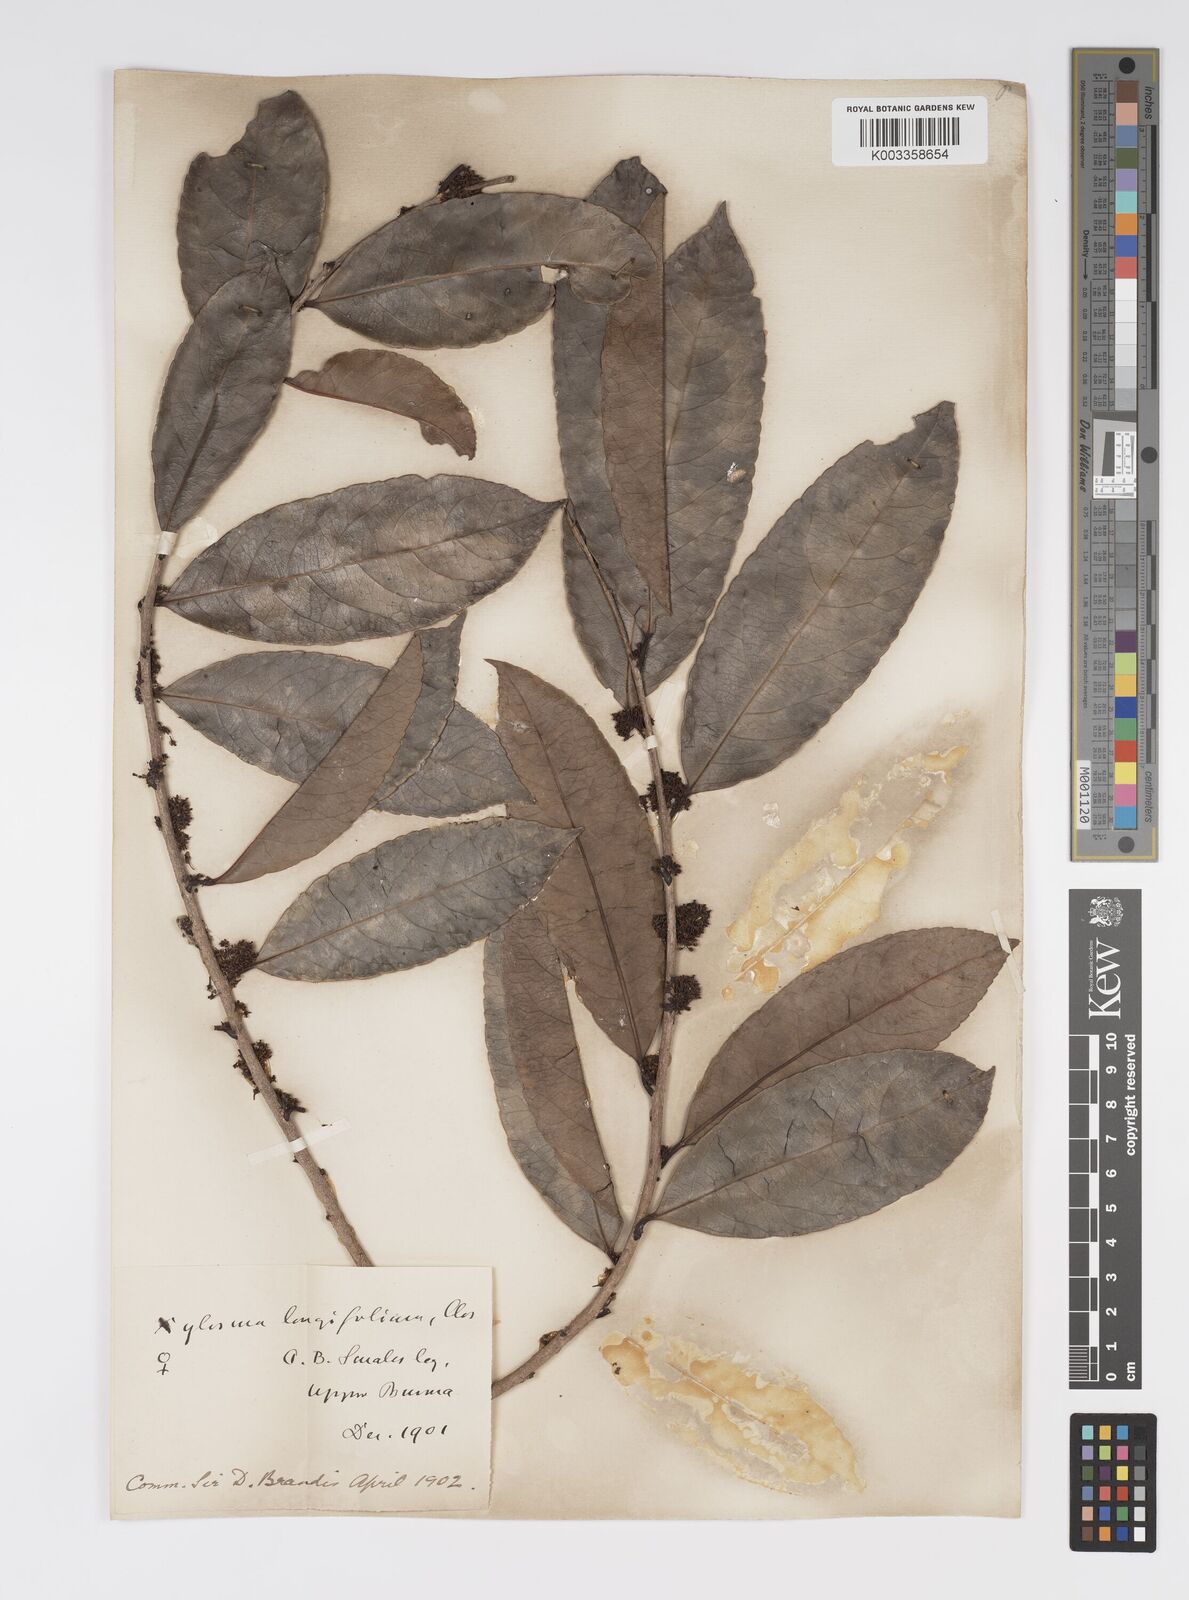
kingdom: Plantae
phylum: Tracheophyta
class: Magnoliopsida
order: Malpighiales
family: Salicaceae
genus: Xylosma
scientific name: Xylosma longifolia
